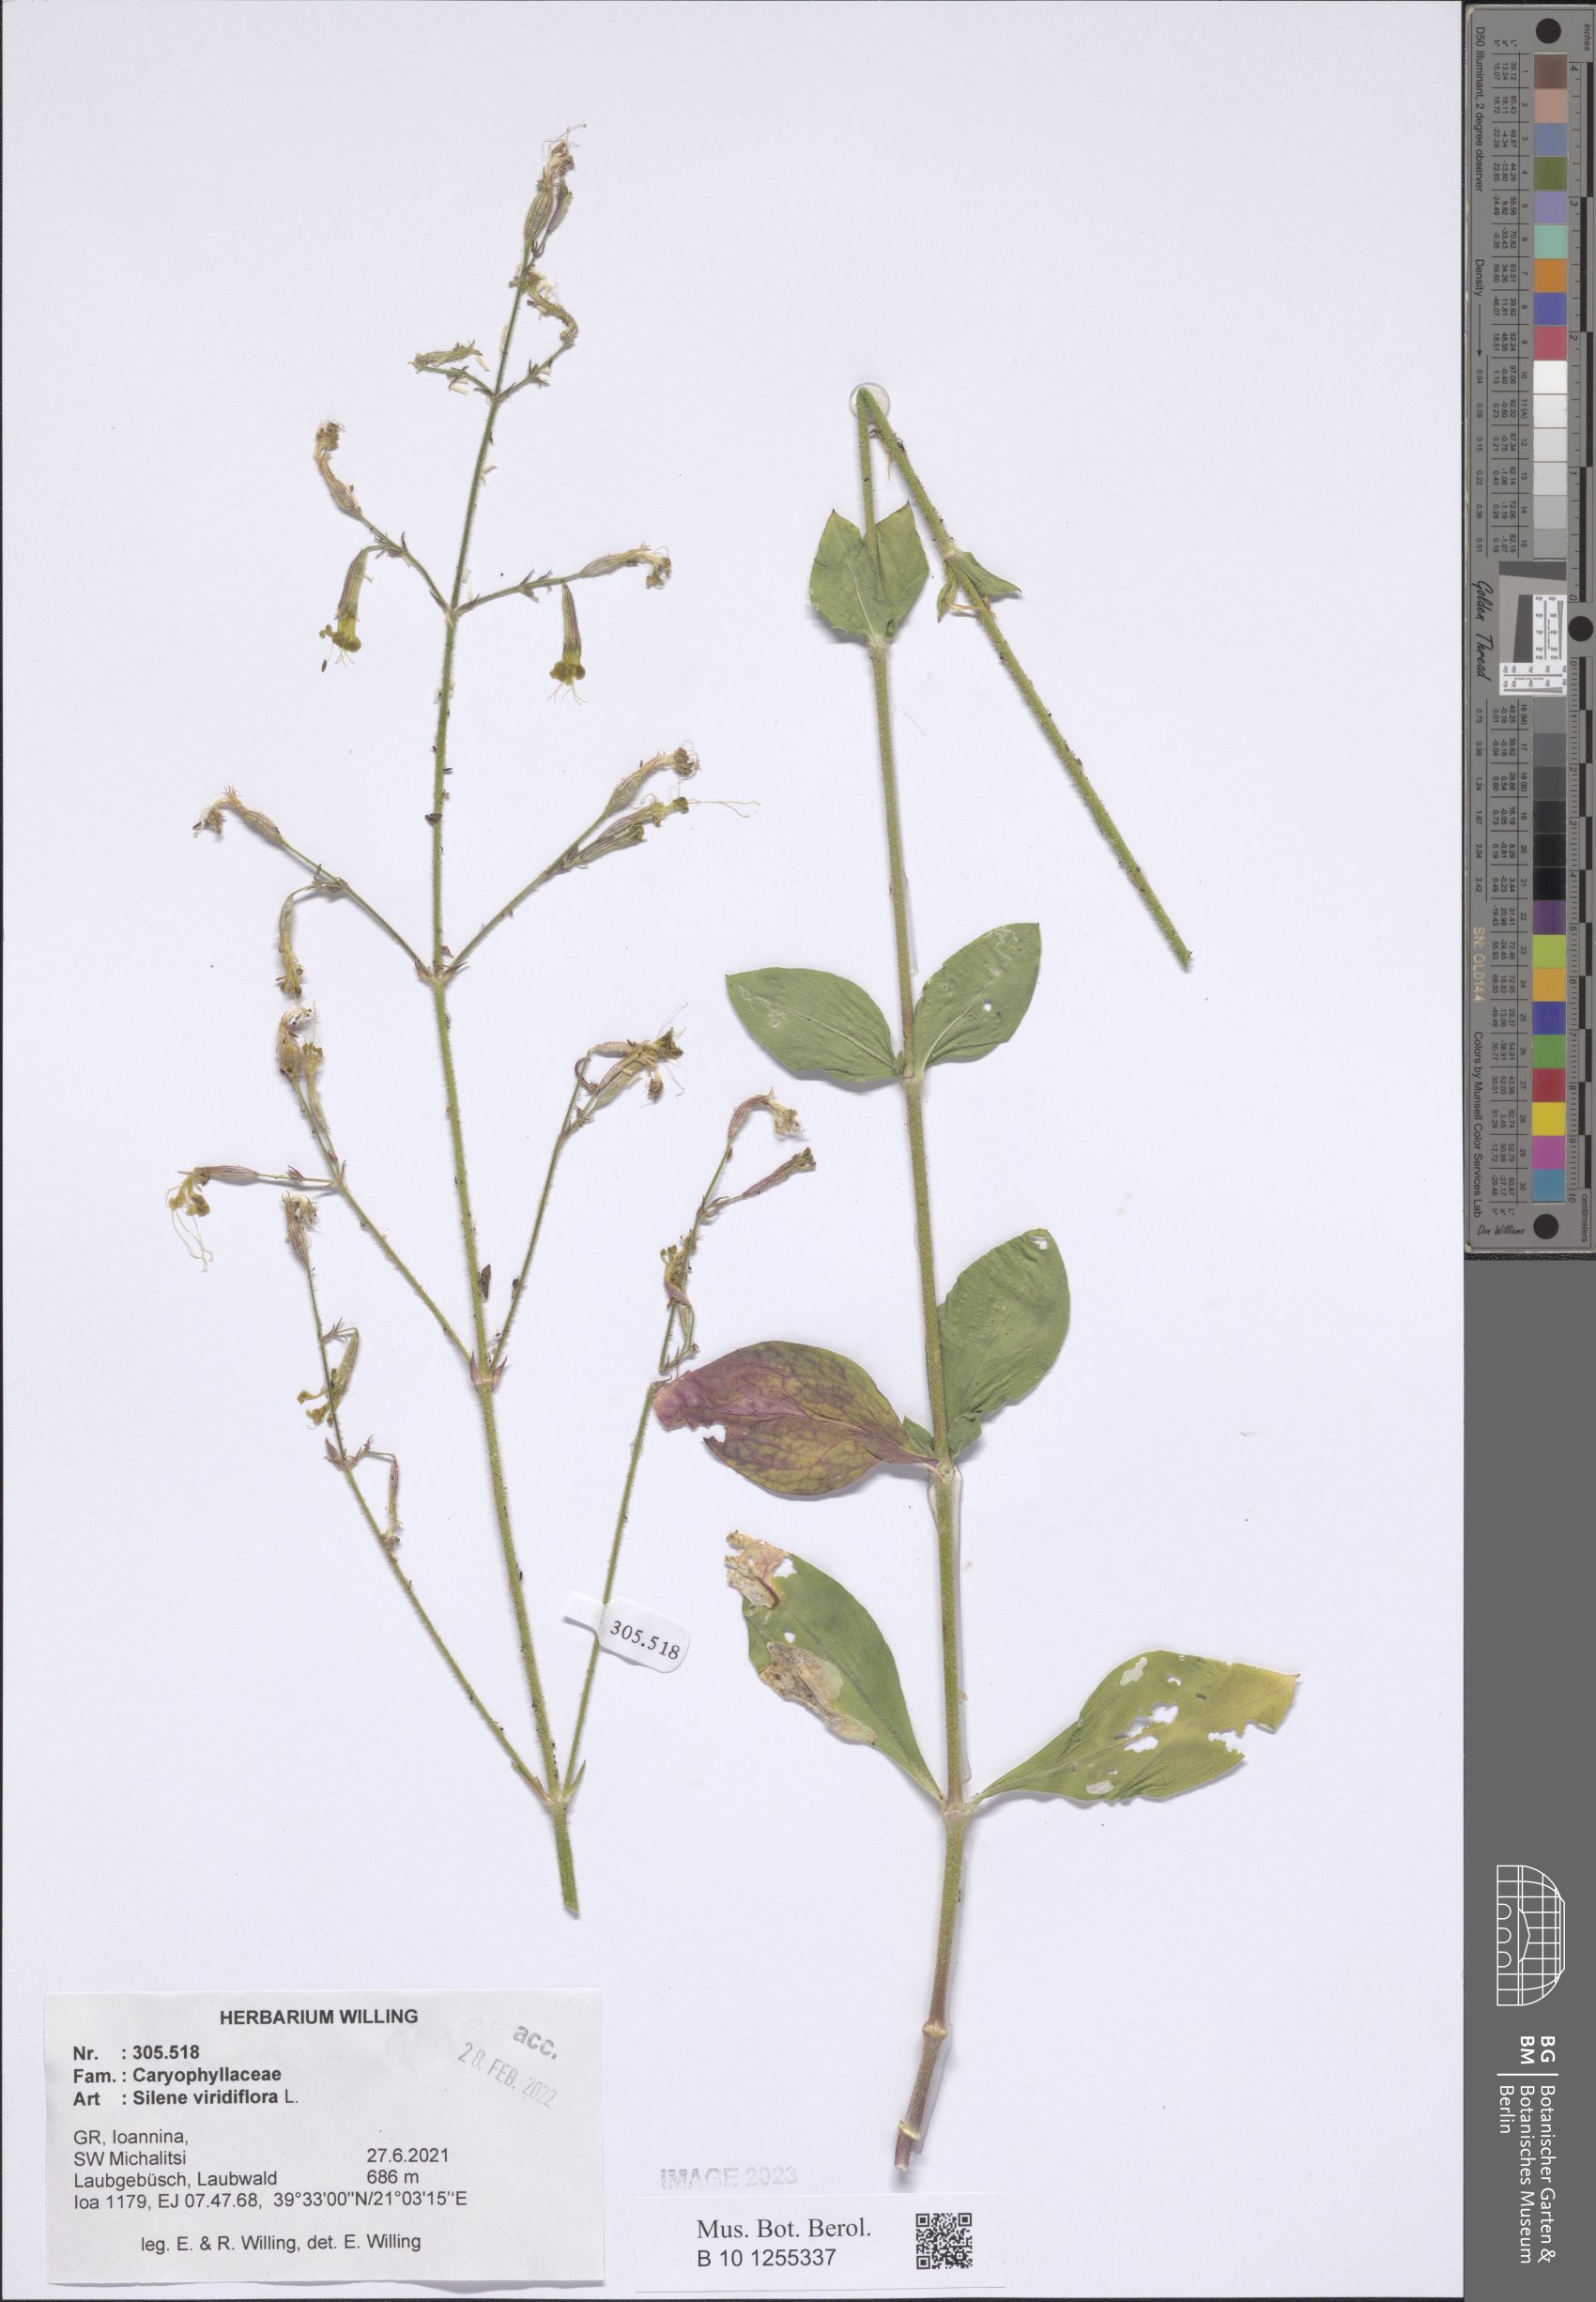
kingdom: Plantae
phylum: Tracheophyta
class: Magnoliopsida
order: Caryophyllales
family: Caryophyllaceae
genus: Silene
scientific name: Silene viridiflora
